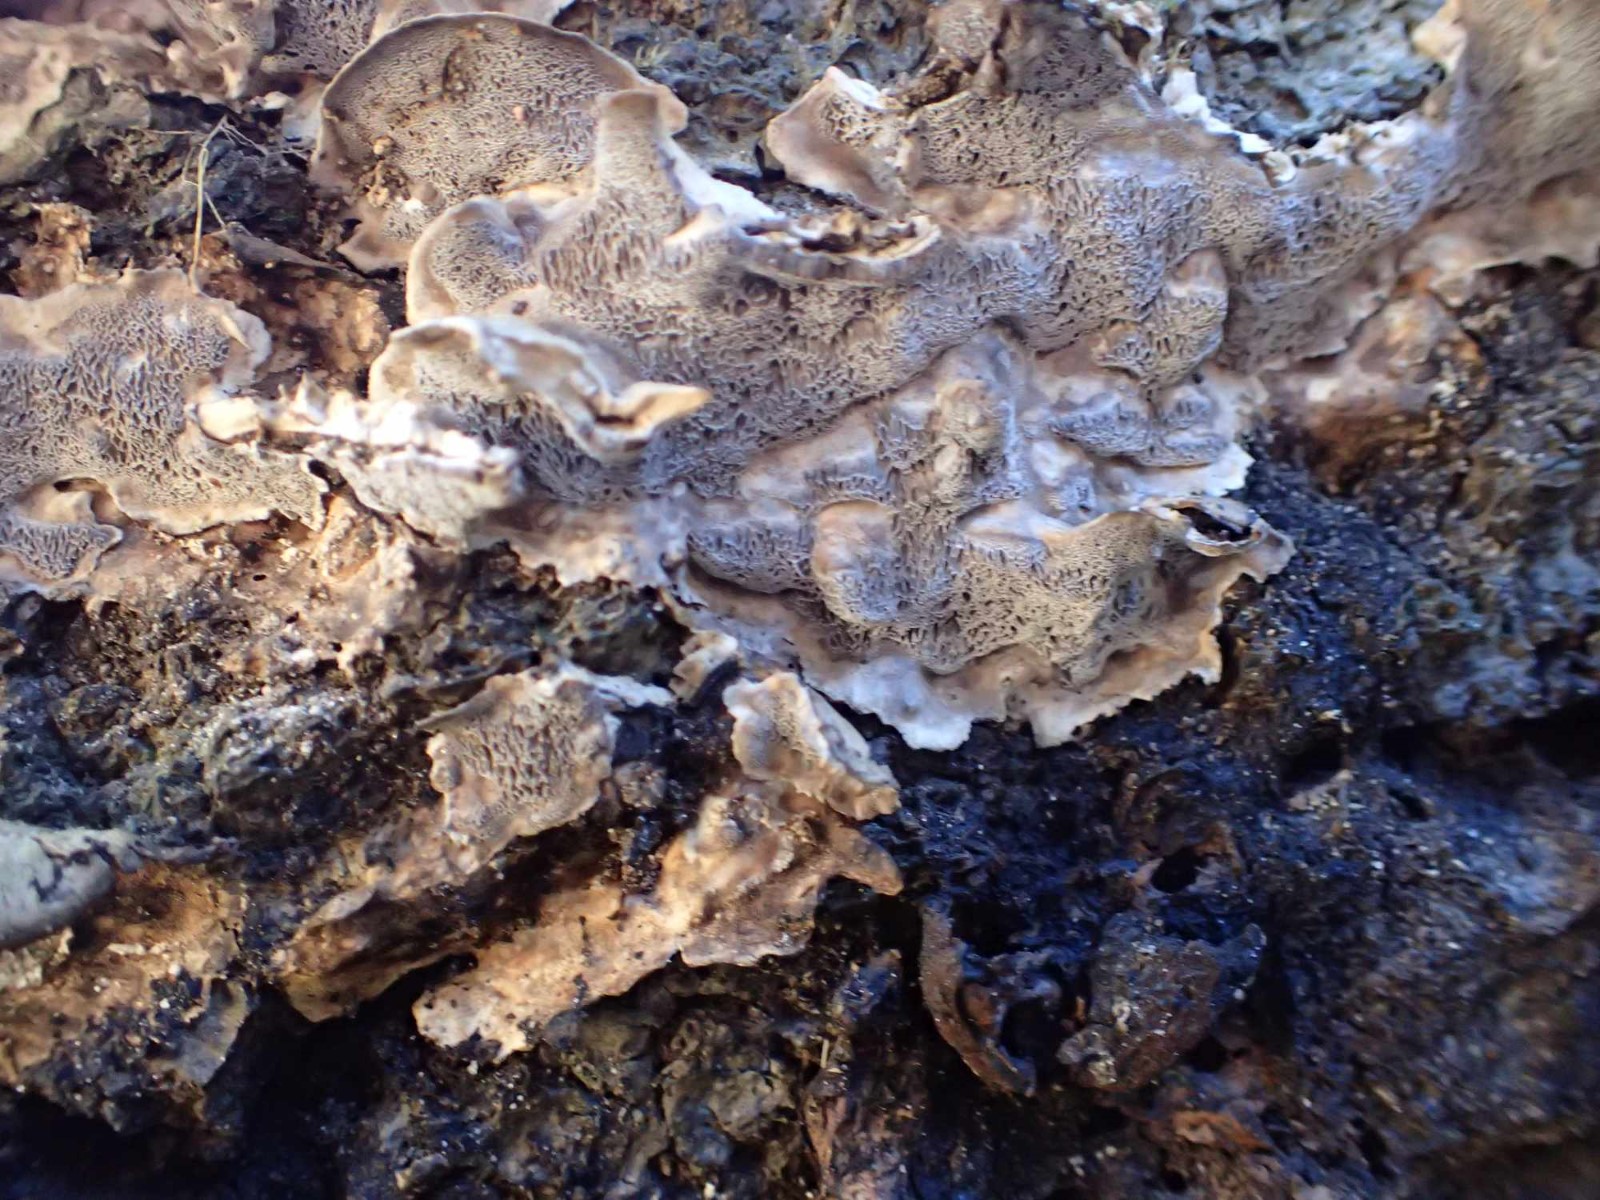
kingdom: Fungi
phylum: Basidiomycota
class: Agaricomycetes
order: Polyporales
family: Phanerochaetaceae
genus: Bjerkandera
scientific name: Bjerkandera adusta
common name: sveden sodporesvamp
